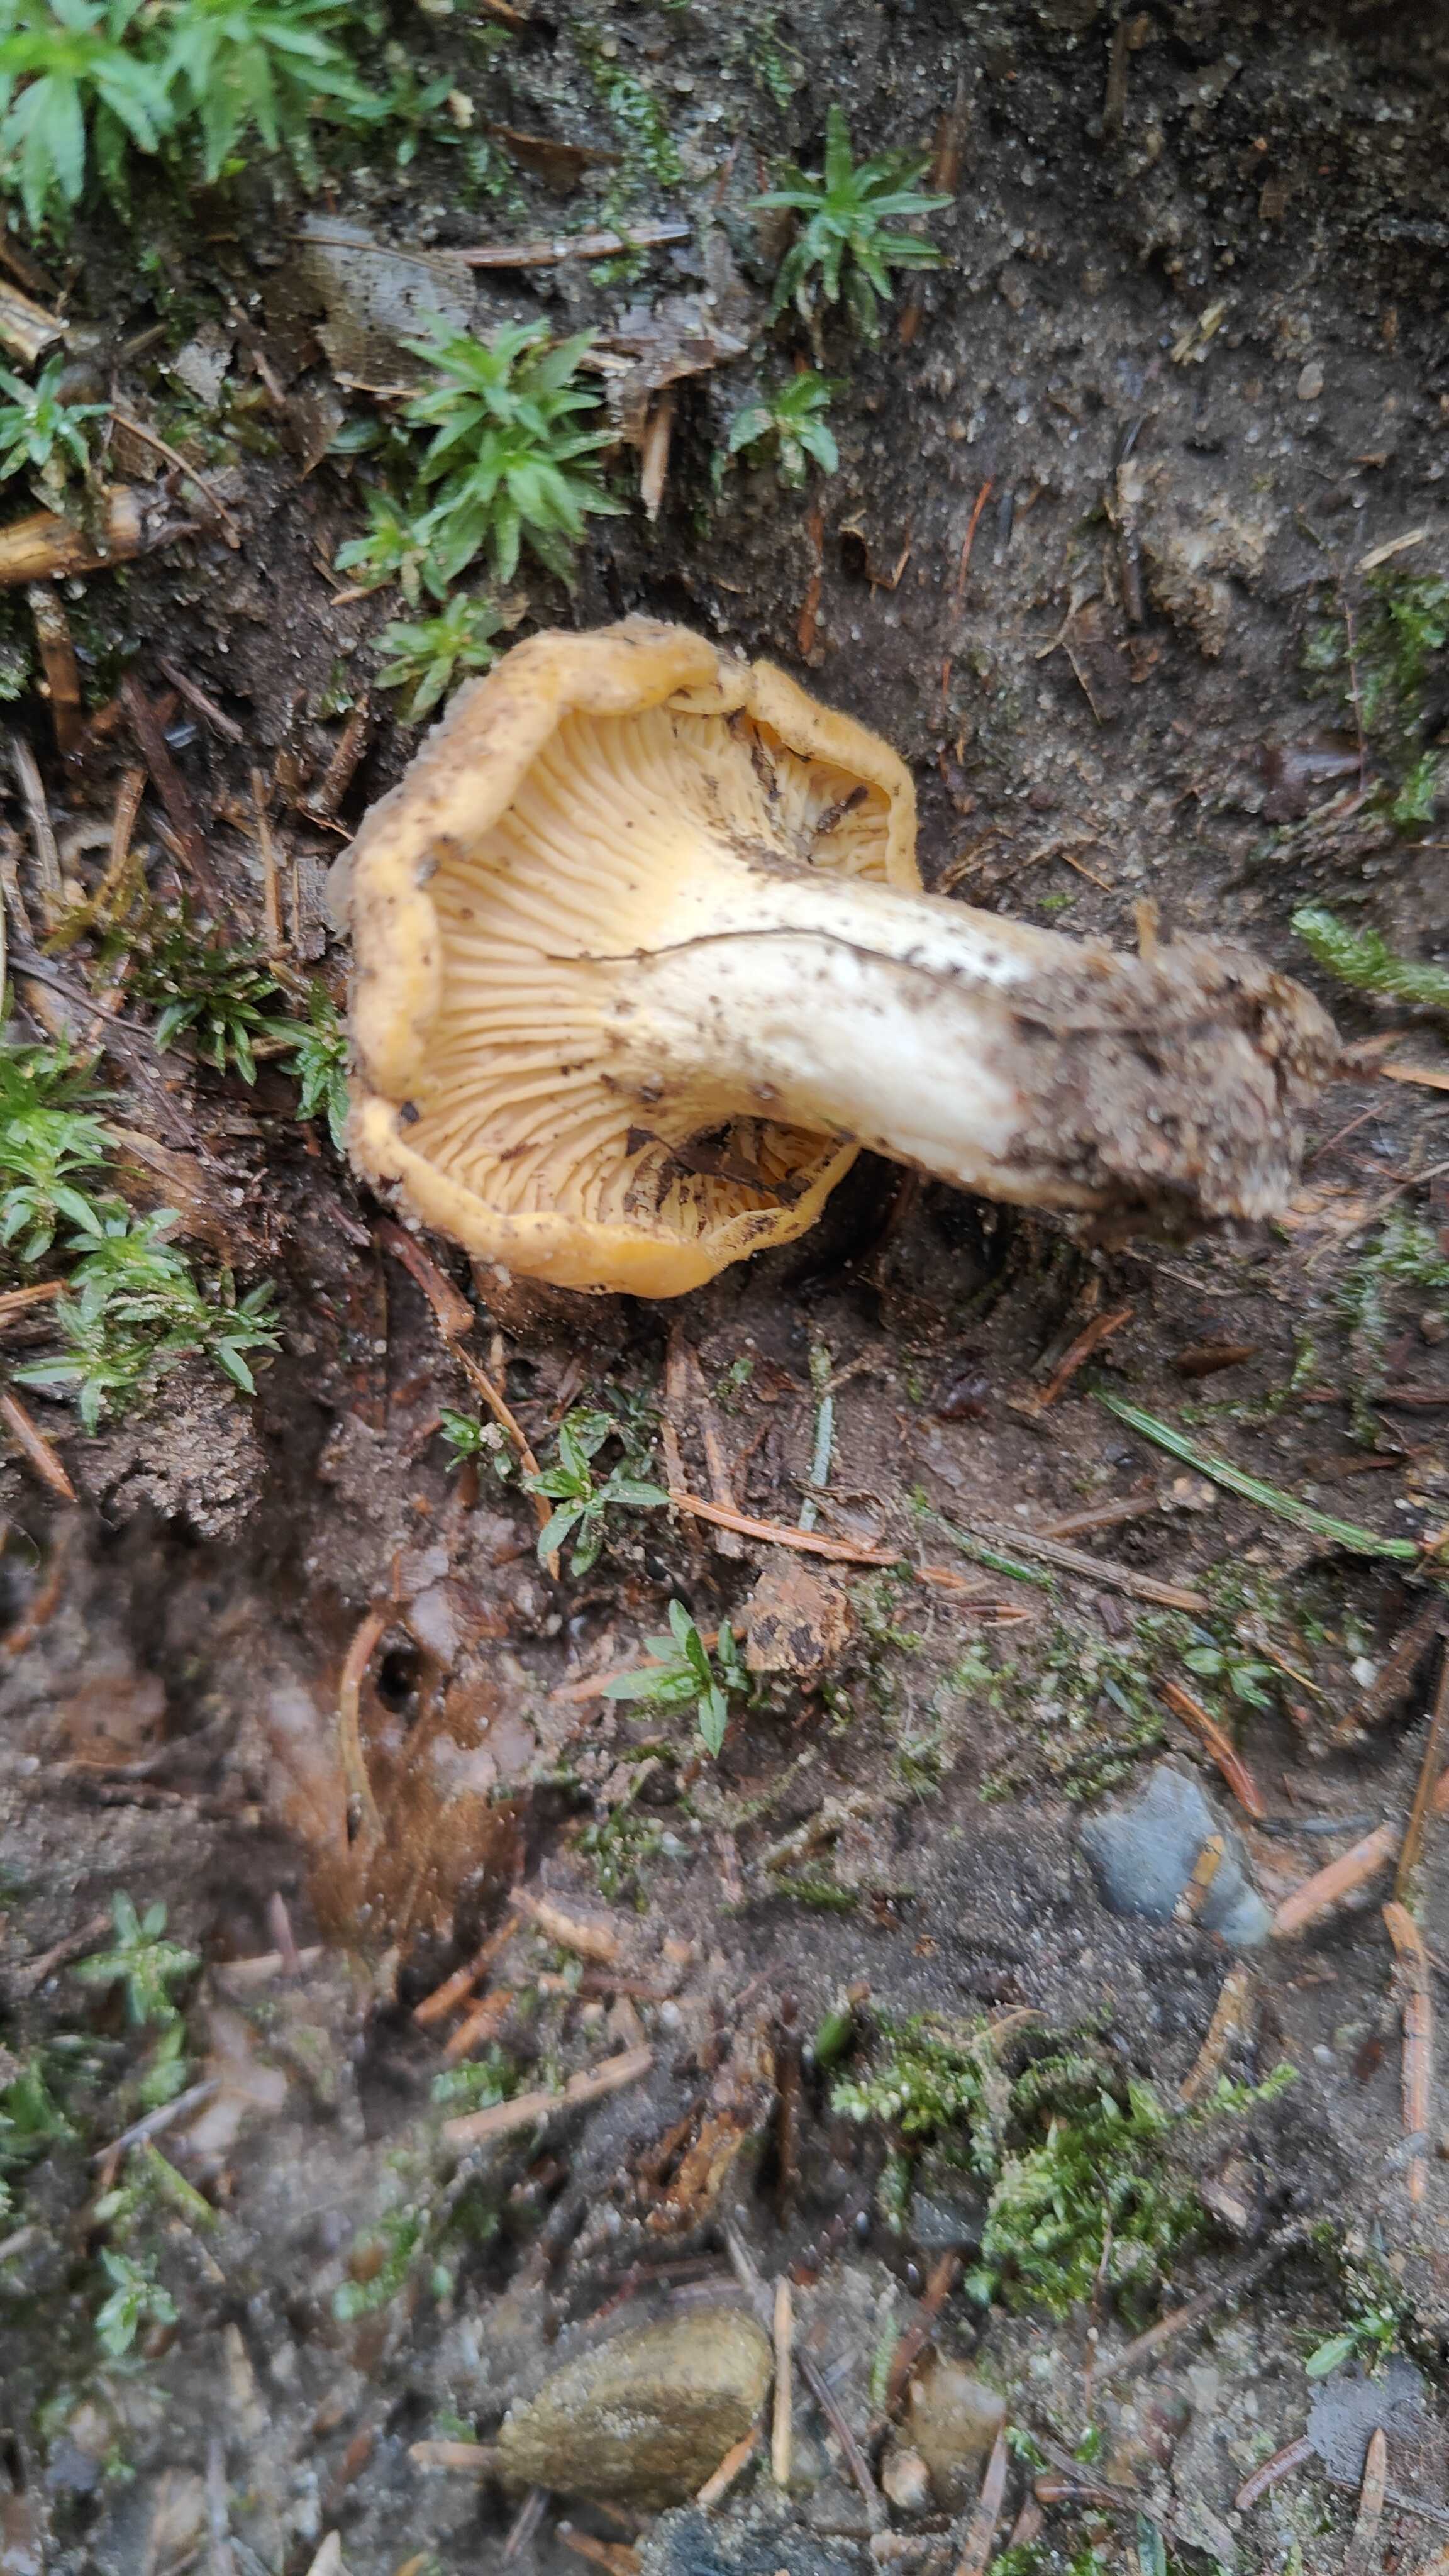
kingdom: Fungi
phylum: Basidiomycota
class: Agaricomycetes
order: Cantharellales
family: Hydnaceae
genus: Cantharellus
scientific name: Cantharellus cibarius
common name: almindelig kantarel
